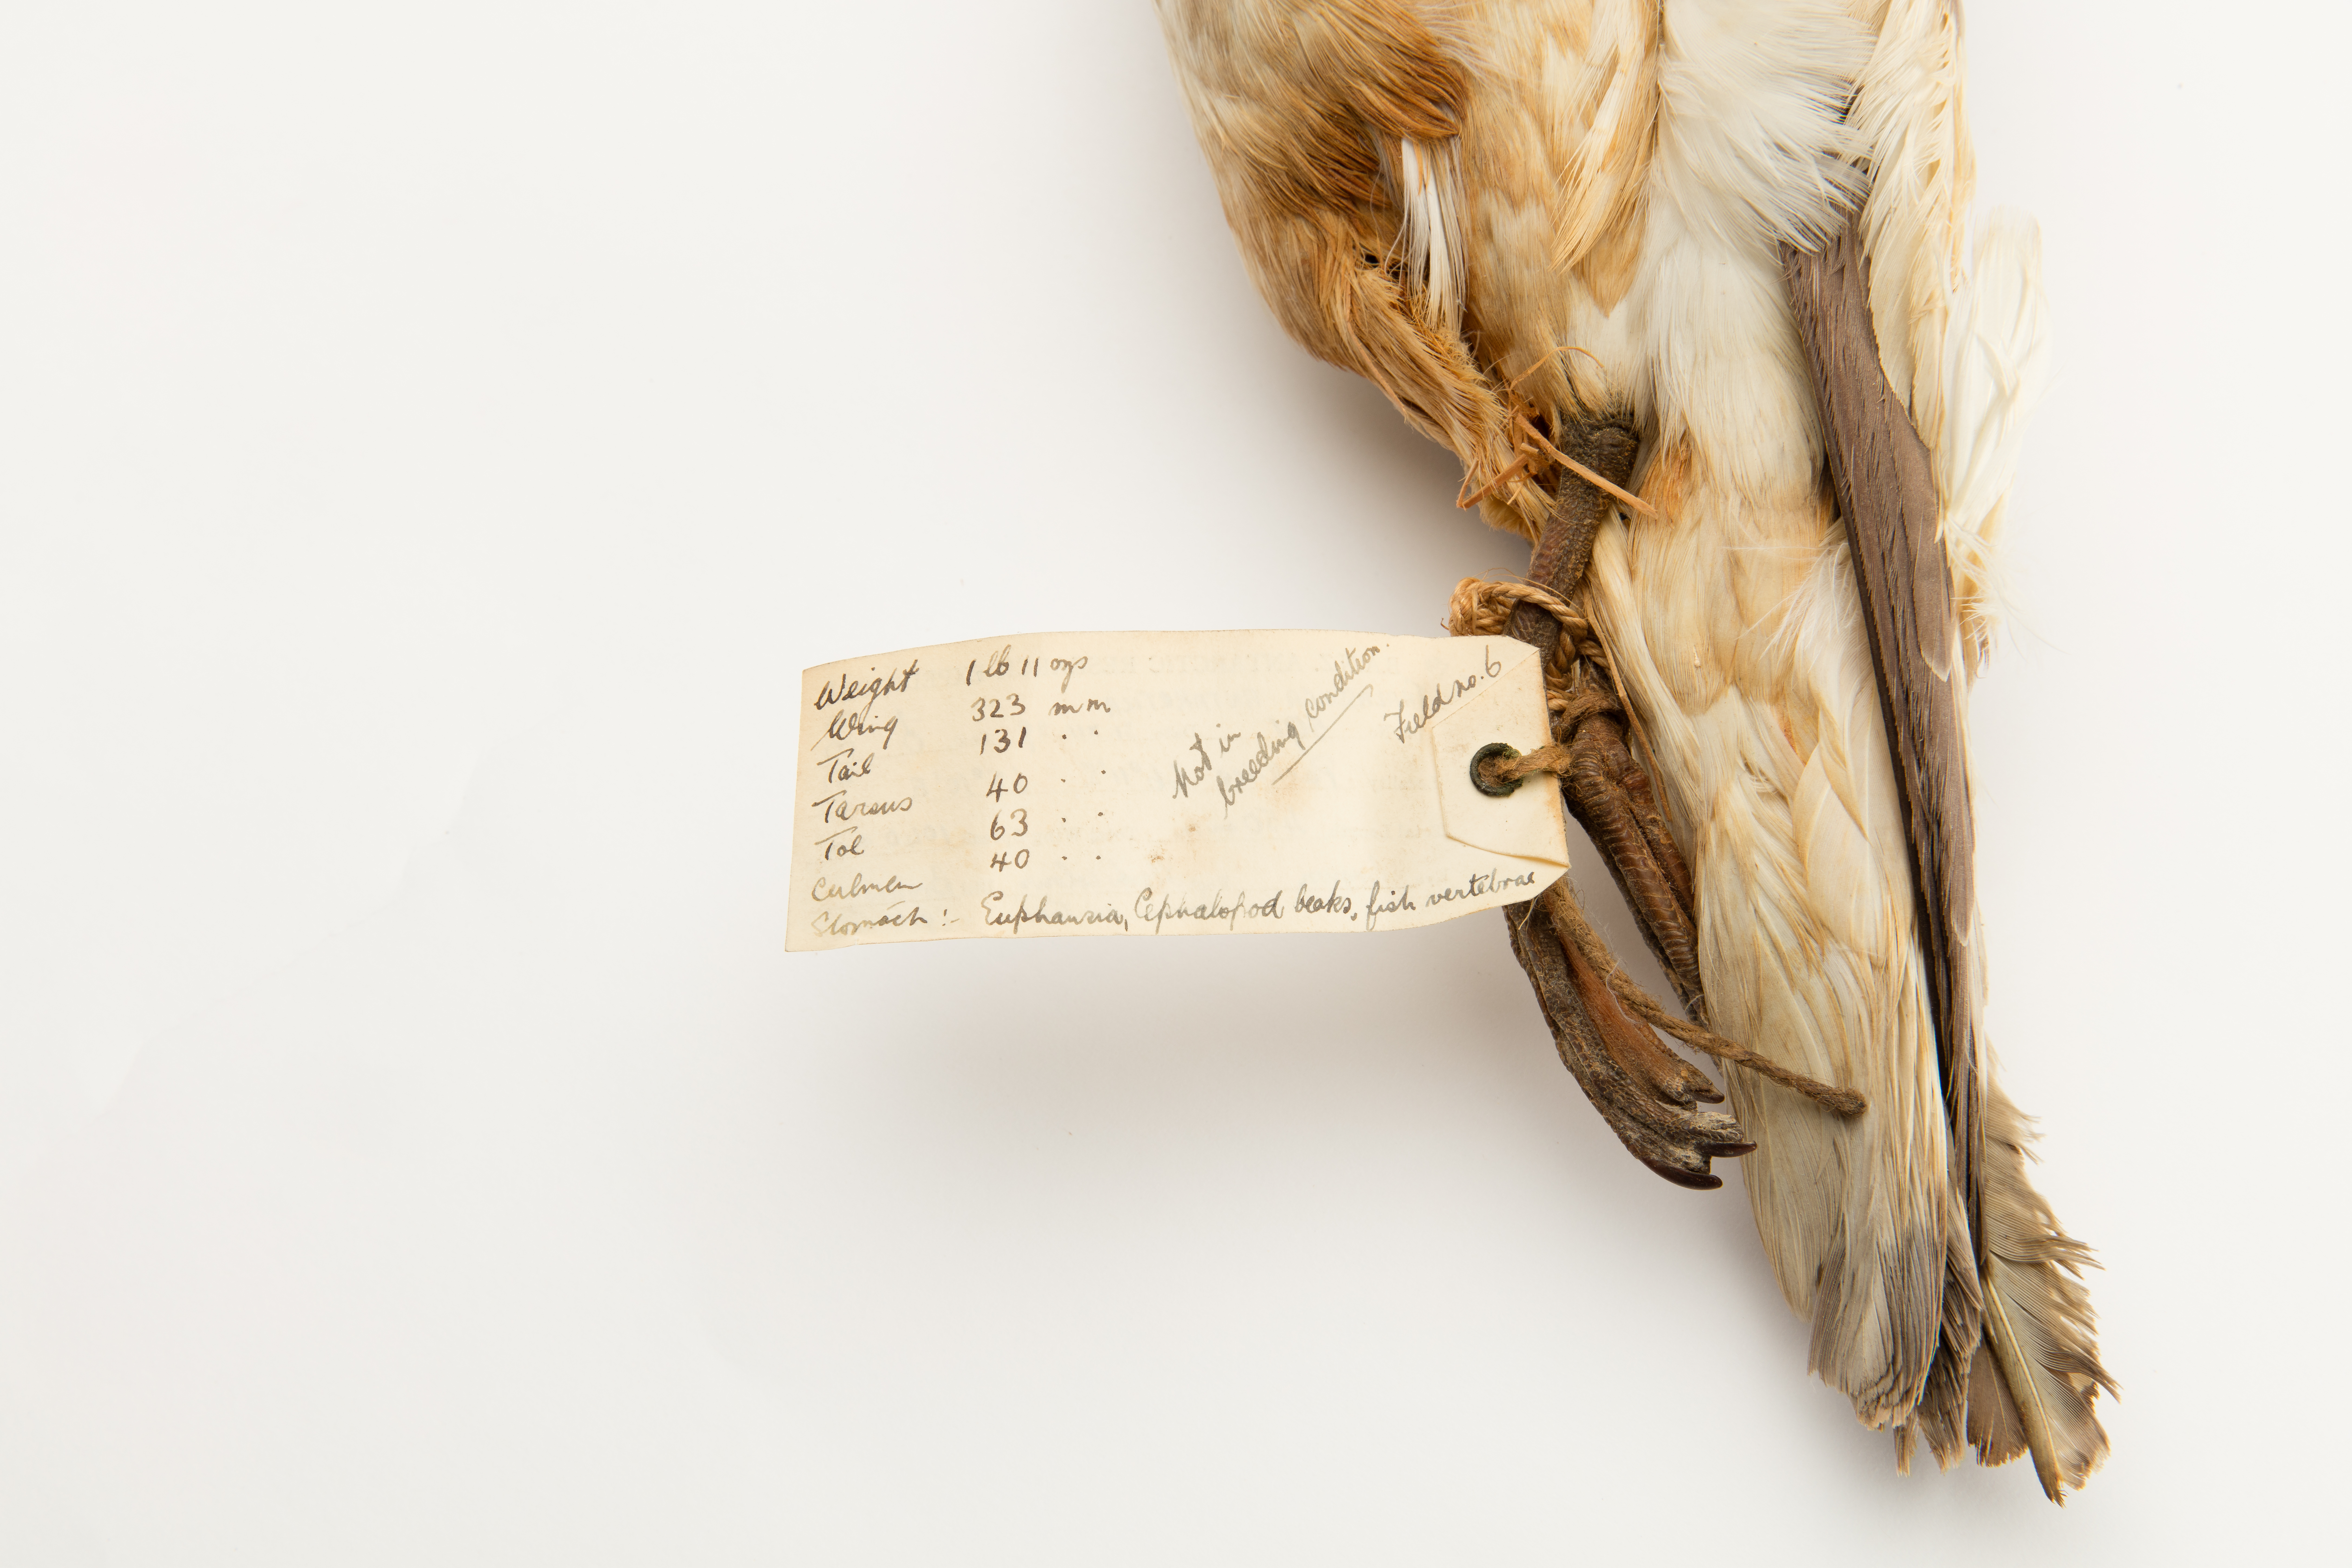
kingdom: Animalia
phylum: Chordata
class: Aves
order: Procellariiformes
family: Procellariidae
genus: Thalassoica
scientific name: Thalassoica antarctica
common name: Antarctic petrel
